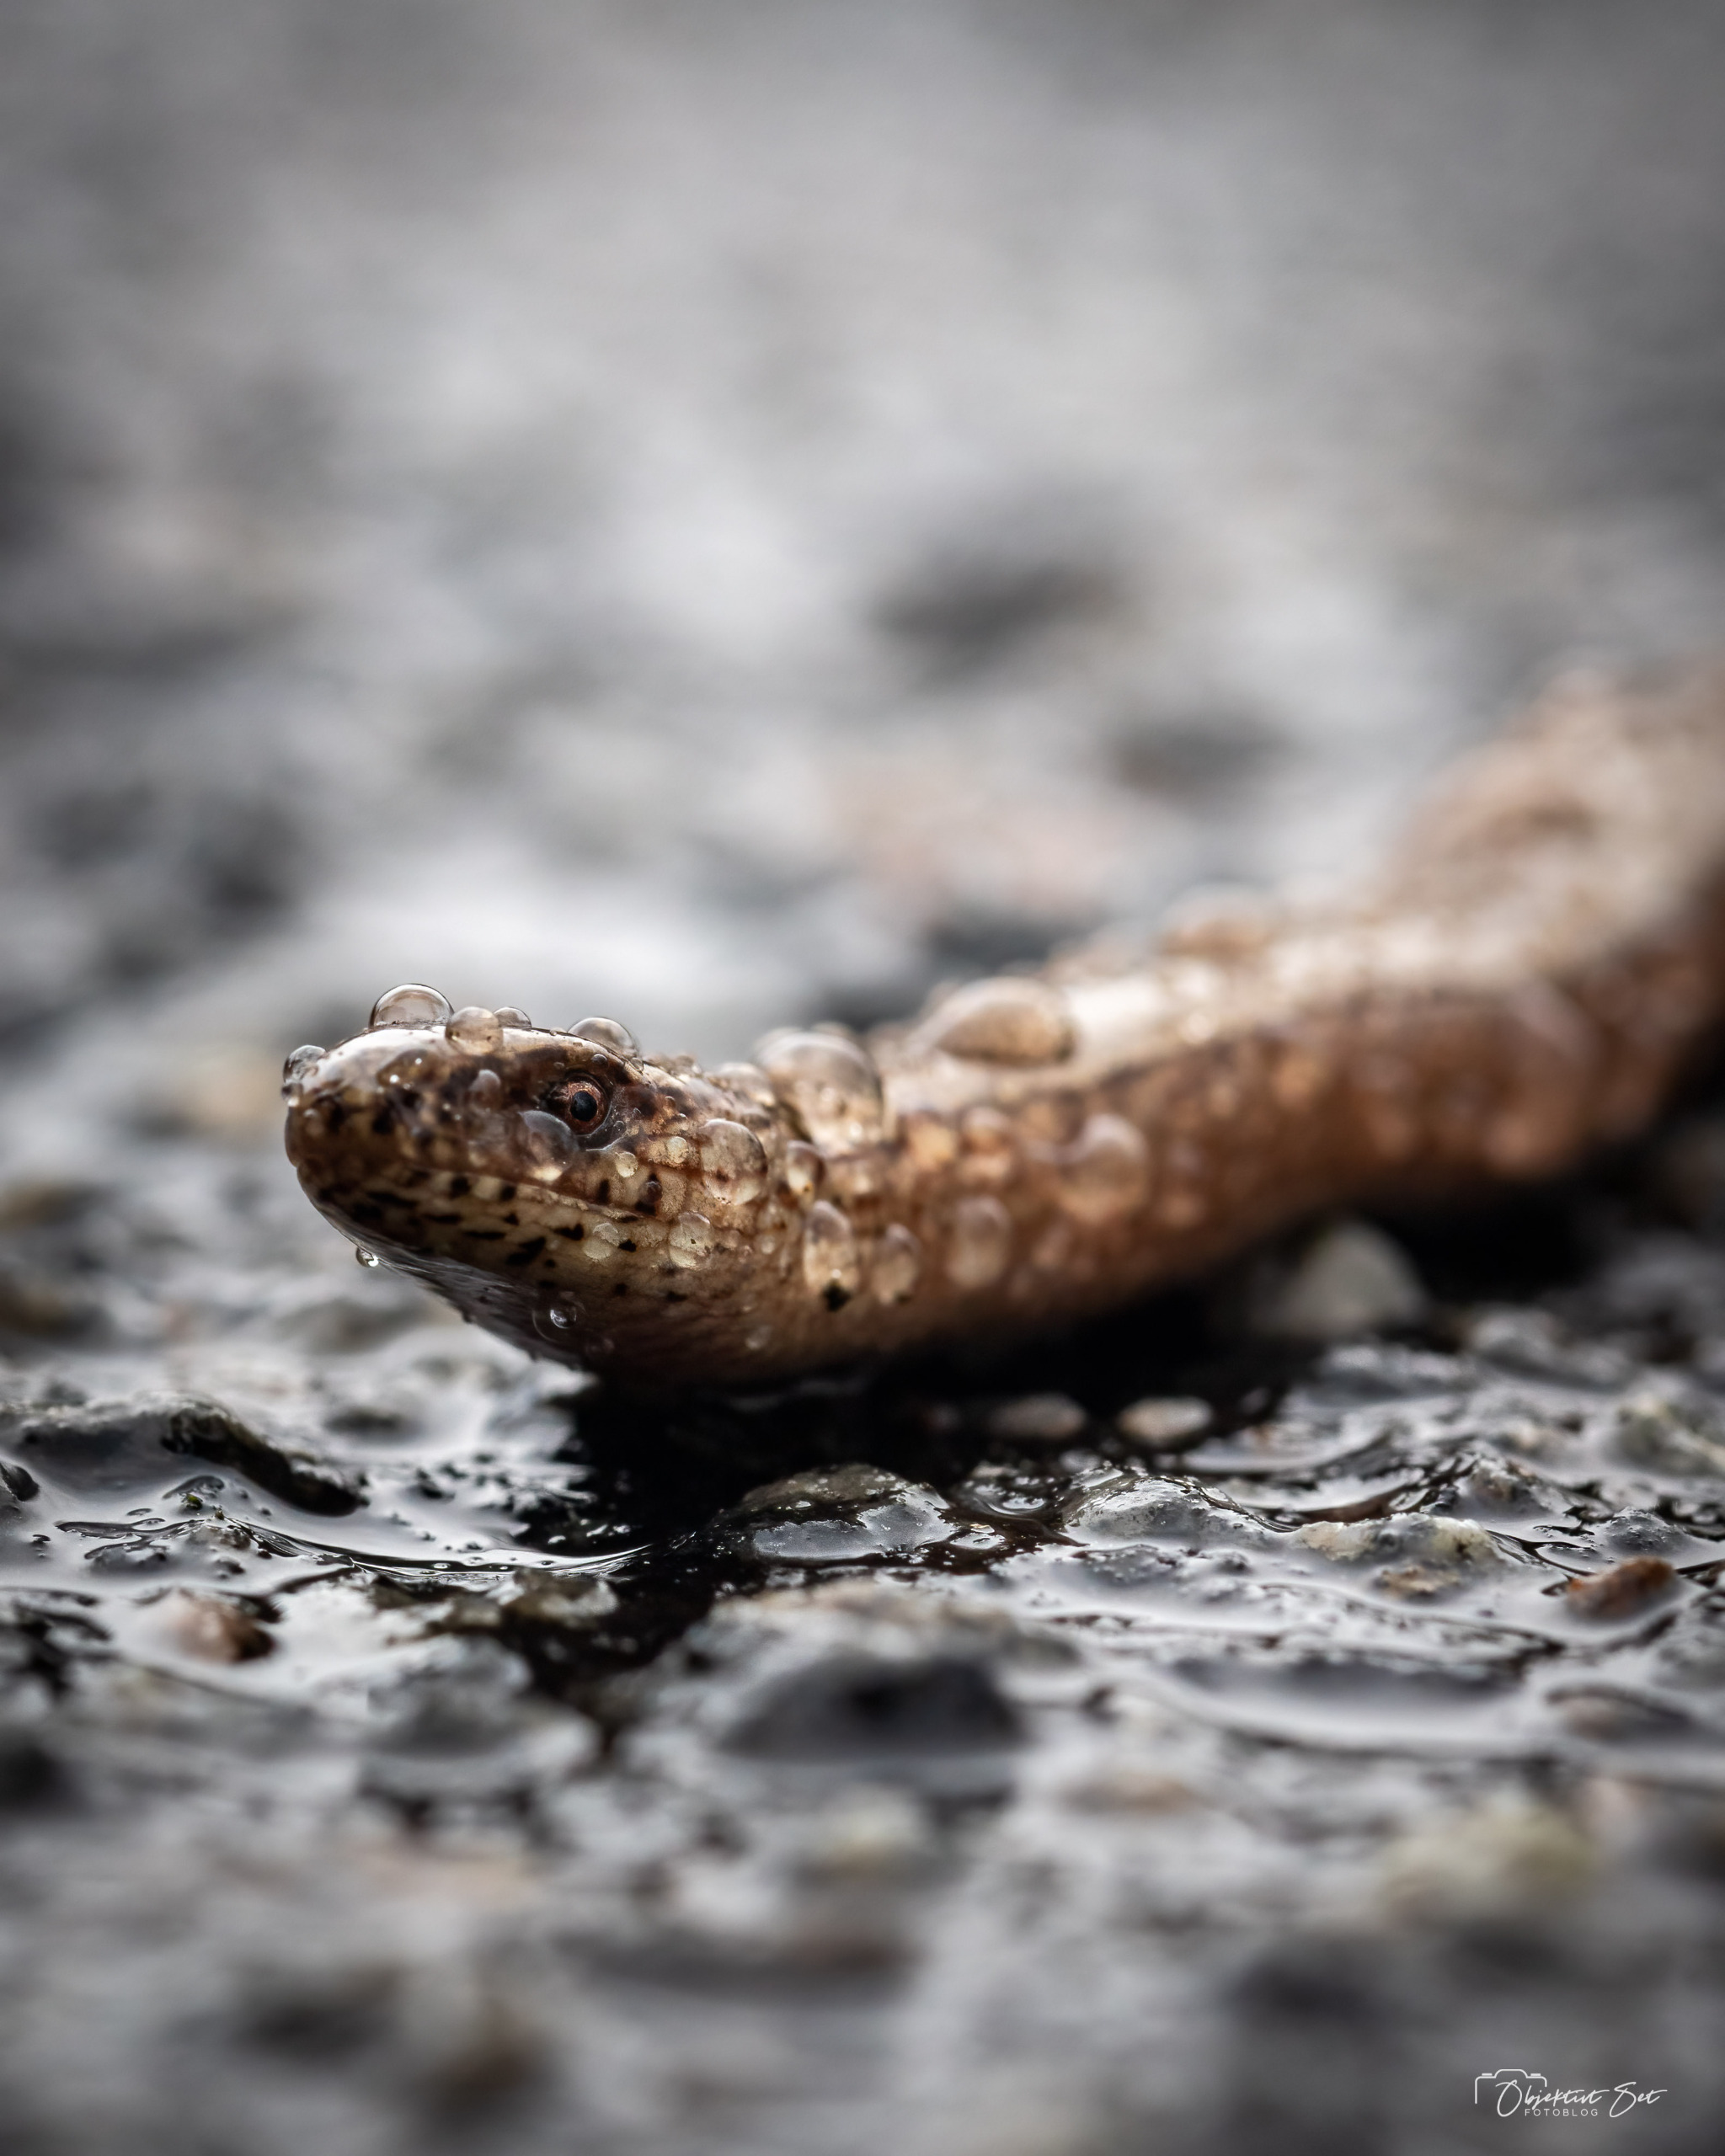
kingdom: Animalia
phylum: Chordata
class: Squamata
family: Anguidae
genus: Anguis
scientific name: Anguis fragilis
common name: Stålorm
